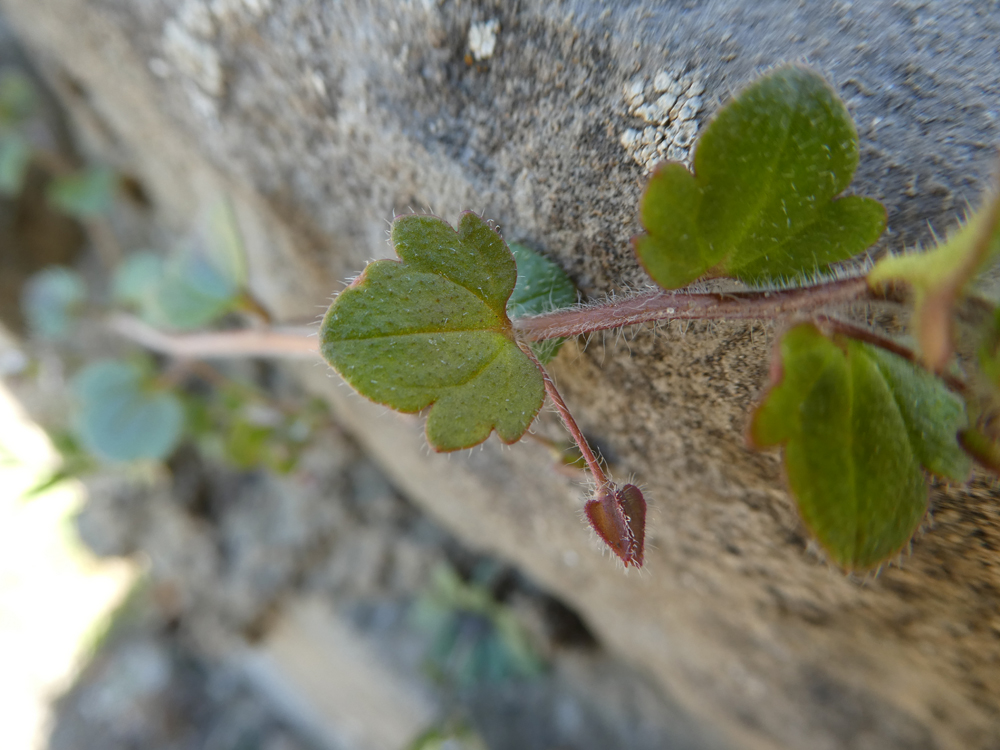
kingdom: Plantae
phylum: Tracheophyta
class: Magnoliopsida
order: Lamiales
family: Plantaginaceae
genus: Veronica
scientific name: Veronica sublobata
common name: False ivy-leaved speedwell
